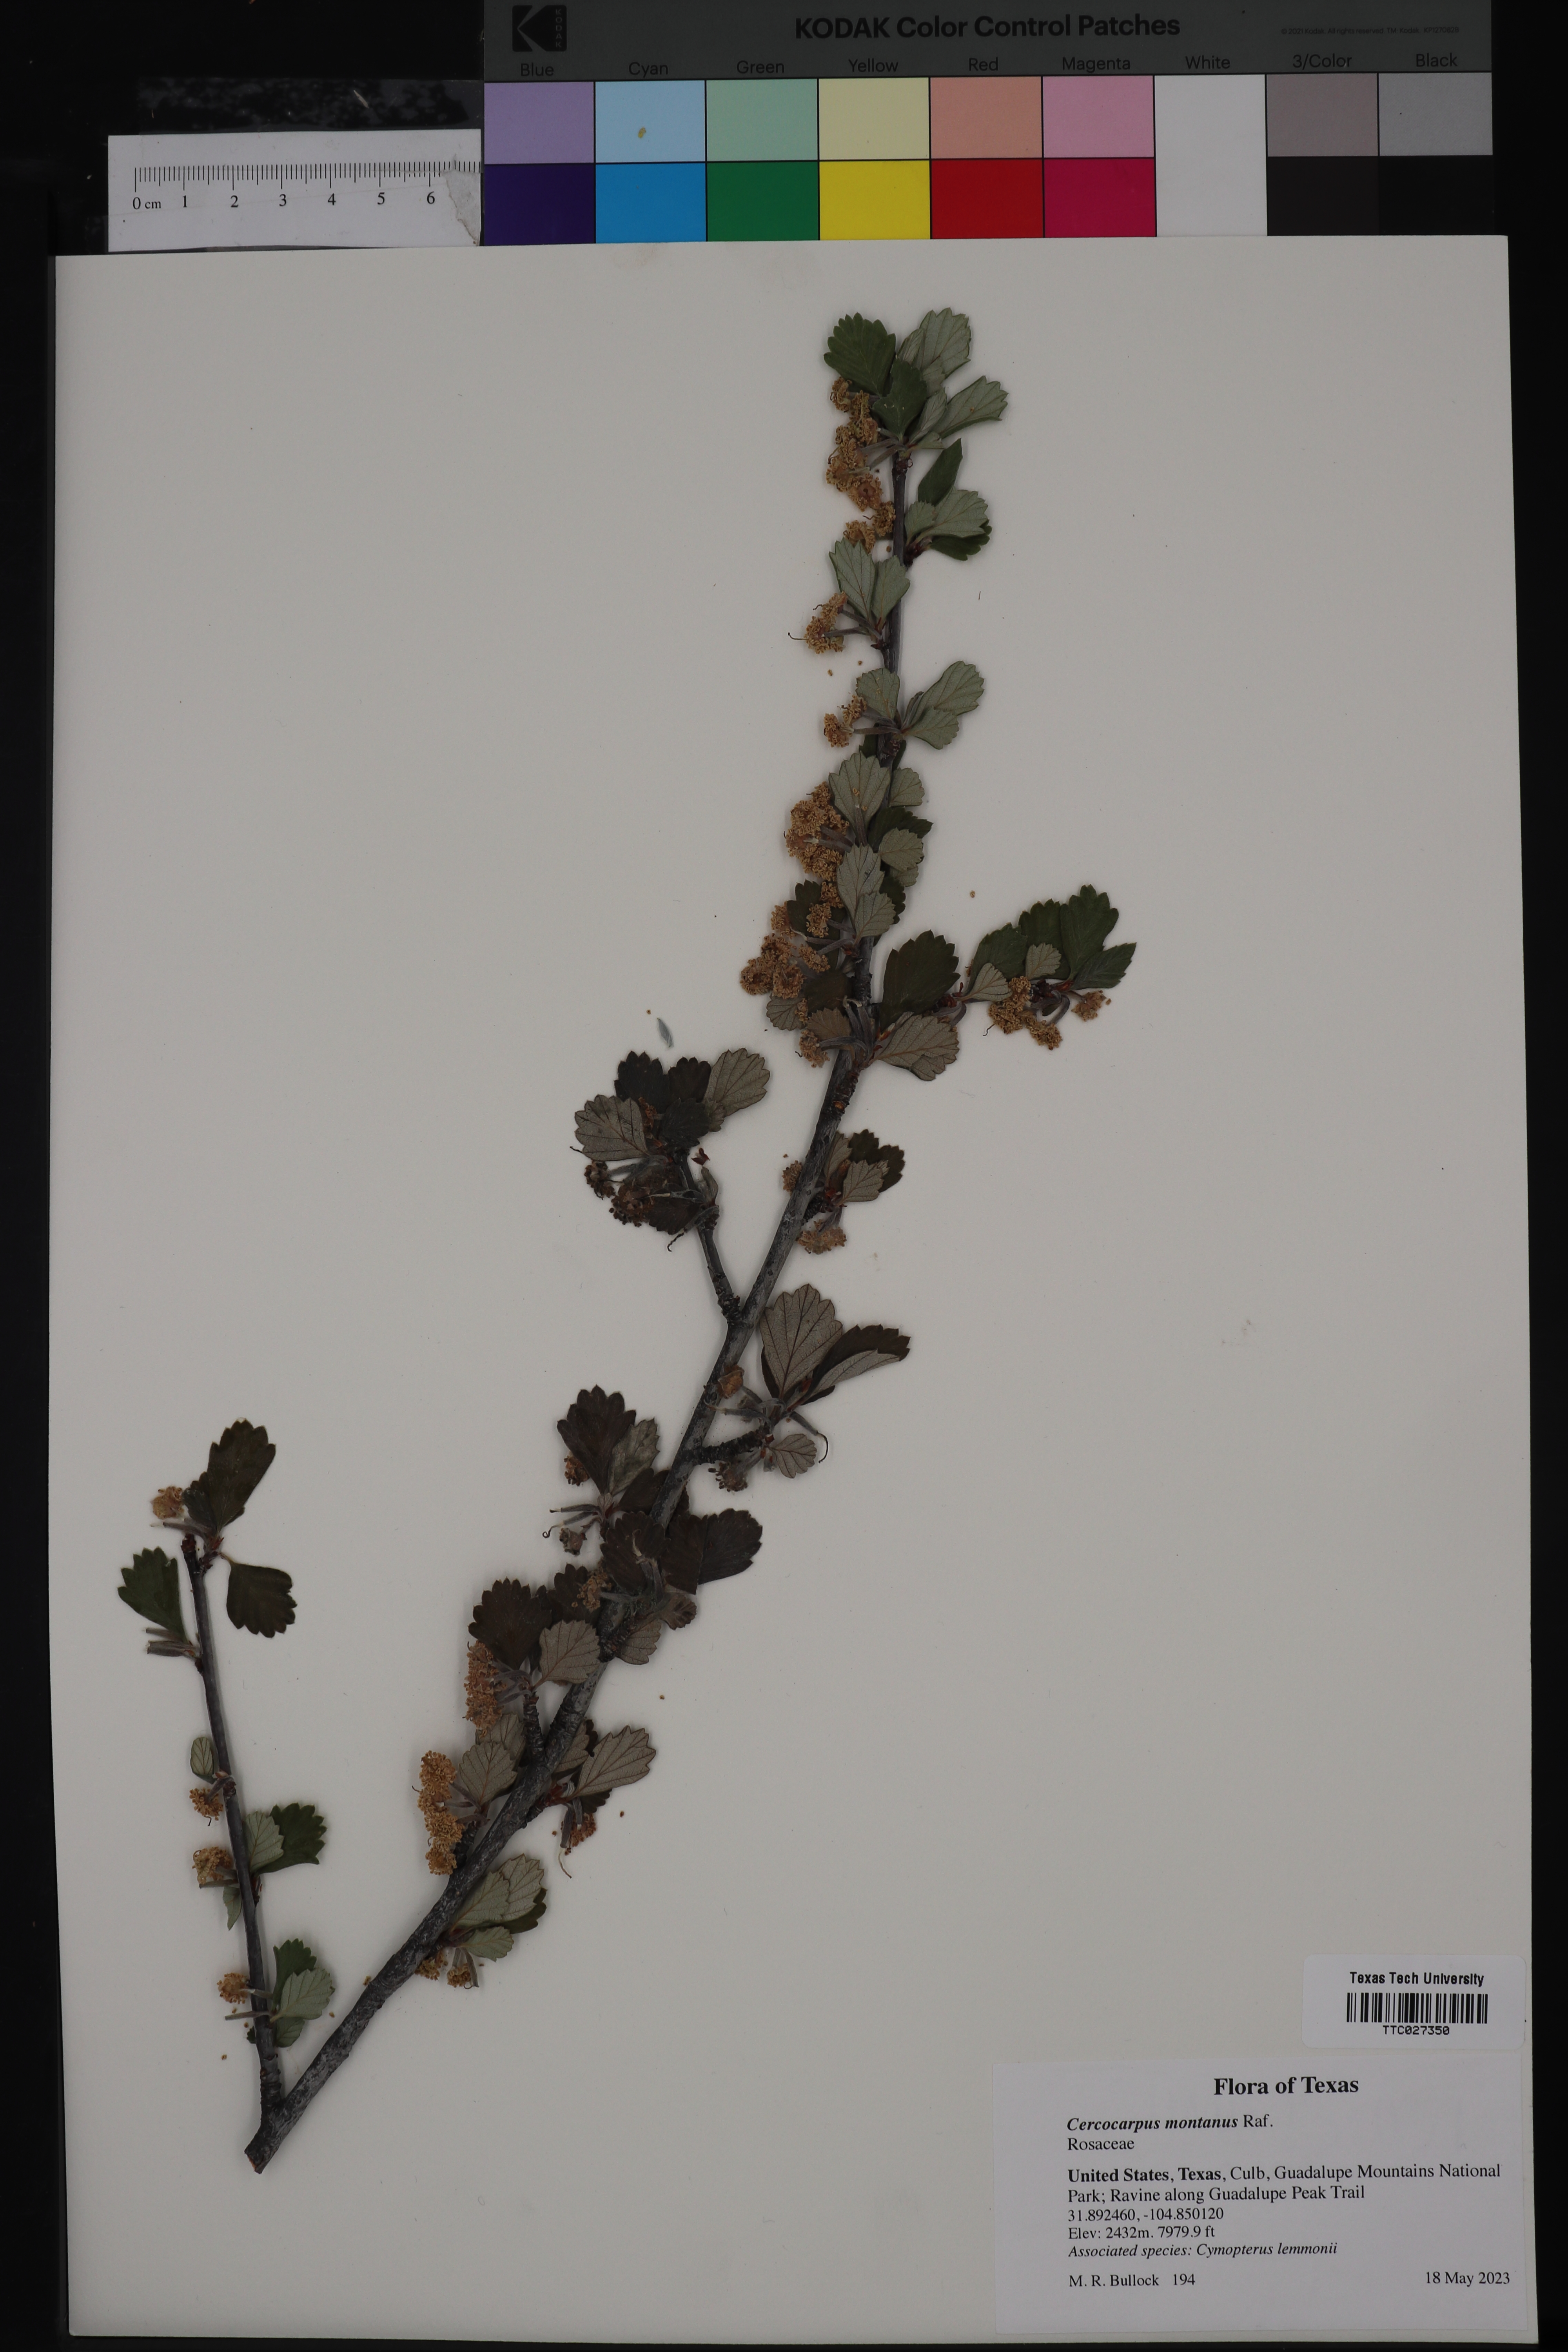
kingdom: Plantae
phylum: Tracheophyta
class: Magnoliopsida
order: Rosales
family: Rosaceae
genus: Cercocarpus
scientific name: Cercocarpus montanus
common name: Alder-leaf cercocarpus
